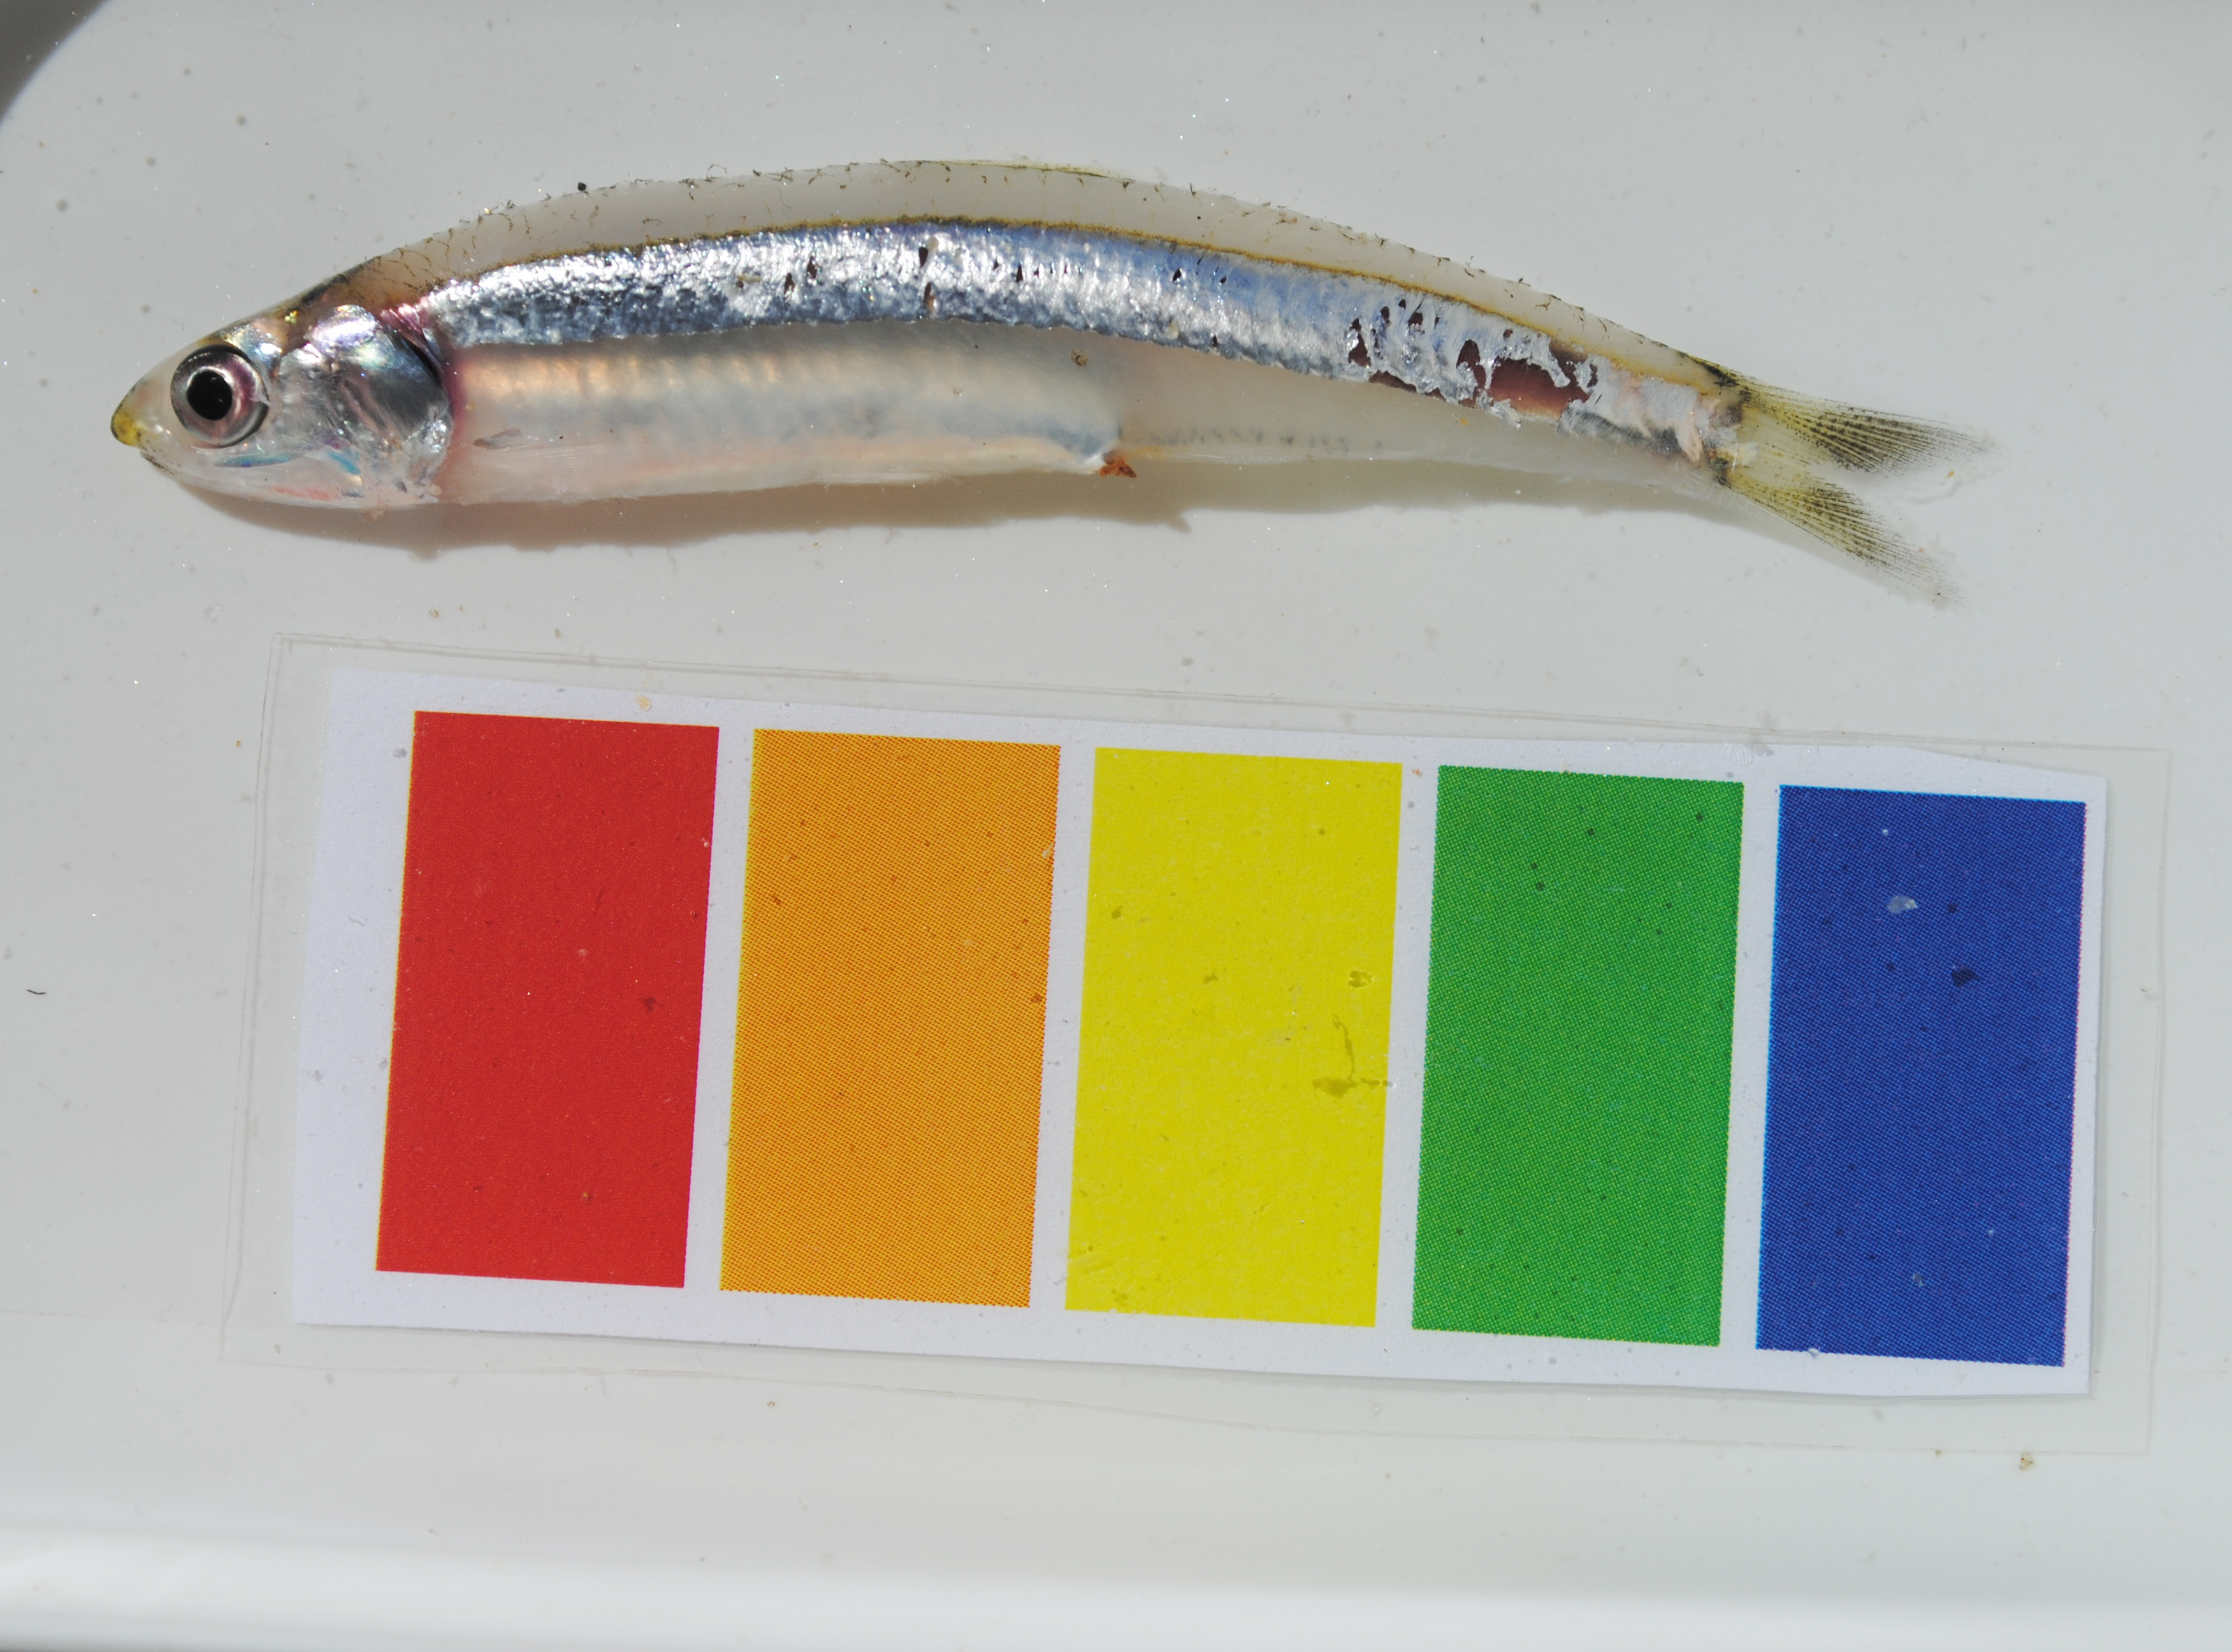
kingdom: Animalia
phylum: Chordata
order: Clupeiformes
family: Engraulidae
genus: Stolephorus
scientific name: Stolephorus indicus
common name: Indian anchovy
